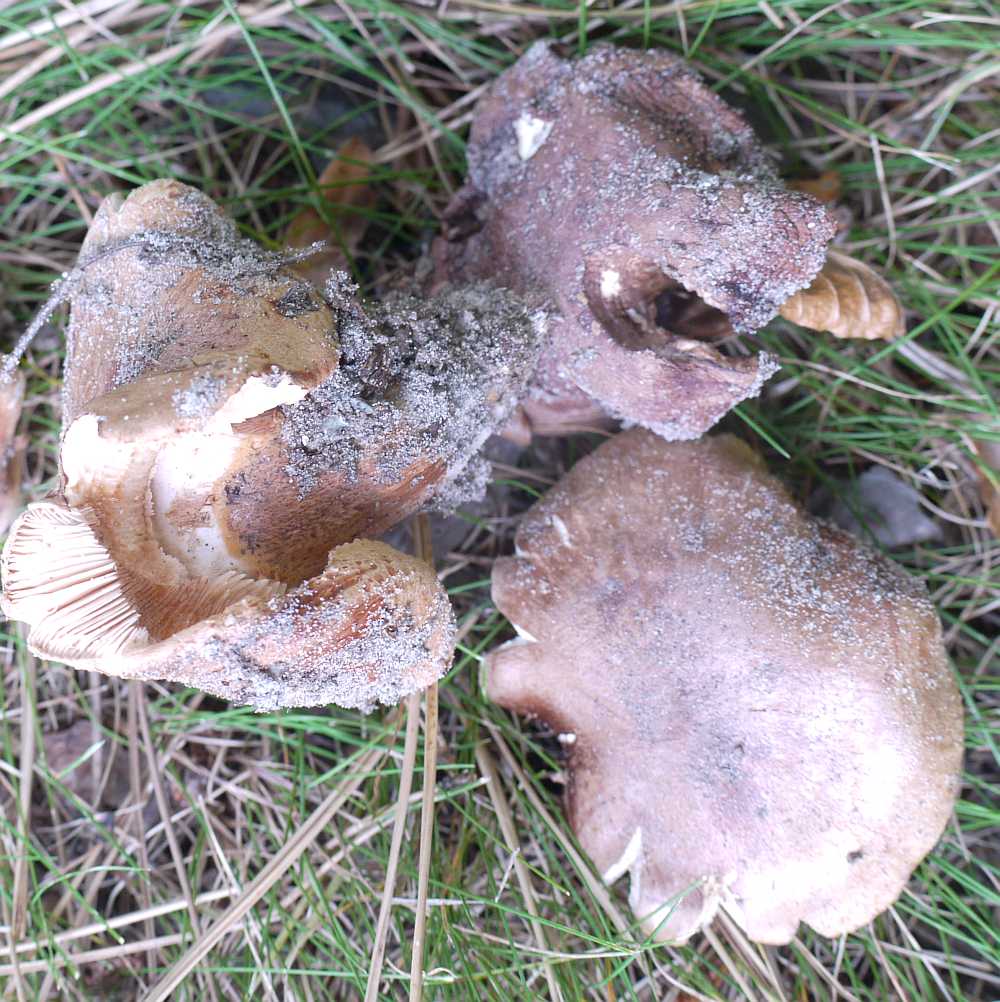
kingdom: Fungi
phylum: Basidiomycota
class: Agaricomycetes
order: Agaricales
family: Tricholomataceae
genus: Tricholoma
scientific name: Tricholoma fracticum
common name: hvidhalset ridderhat
